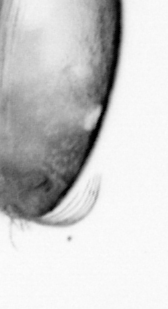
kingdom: Animalia
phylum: Arthropoda
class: Copepoda
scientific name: Copepoda
